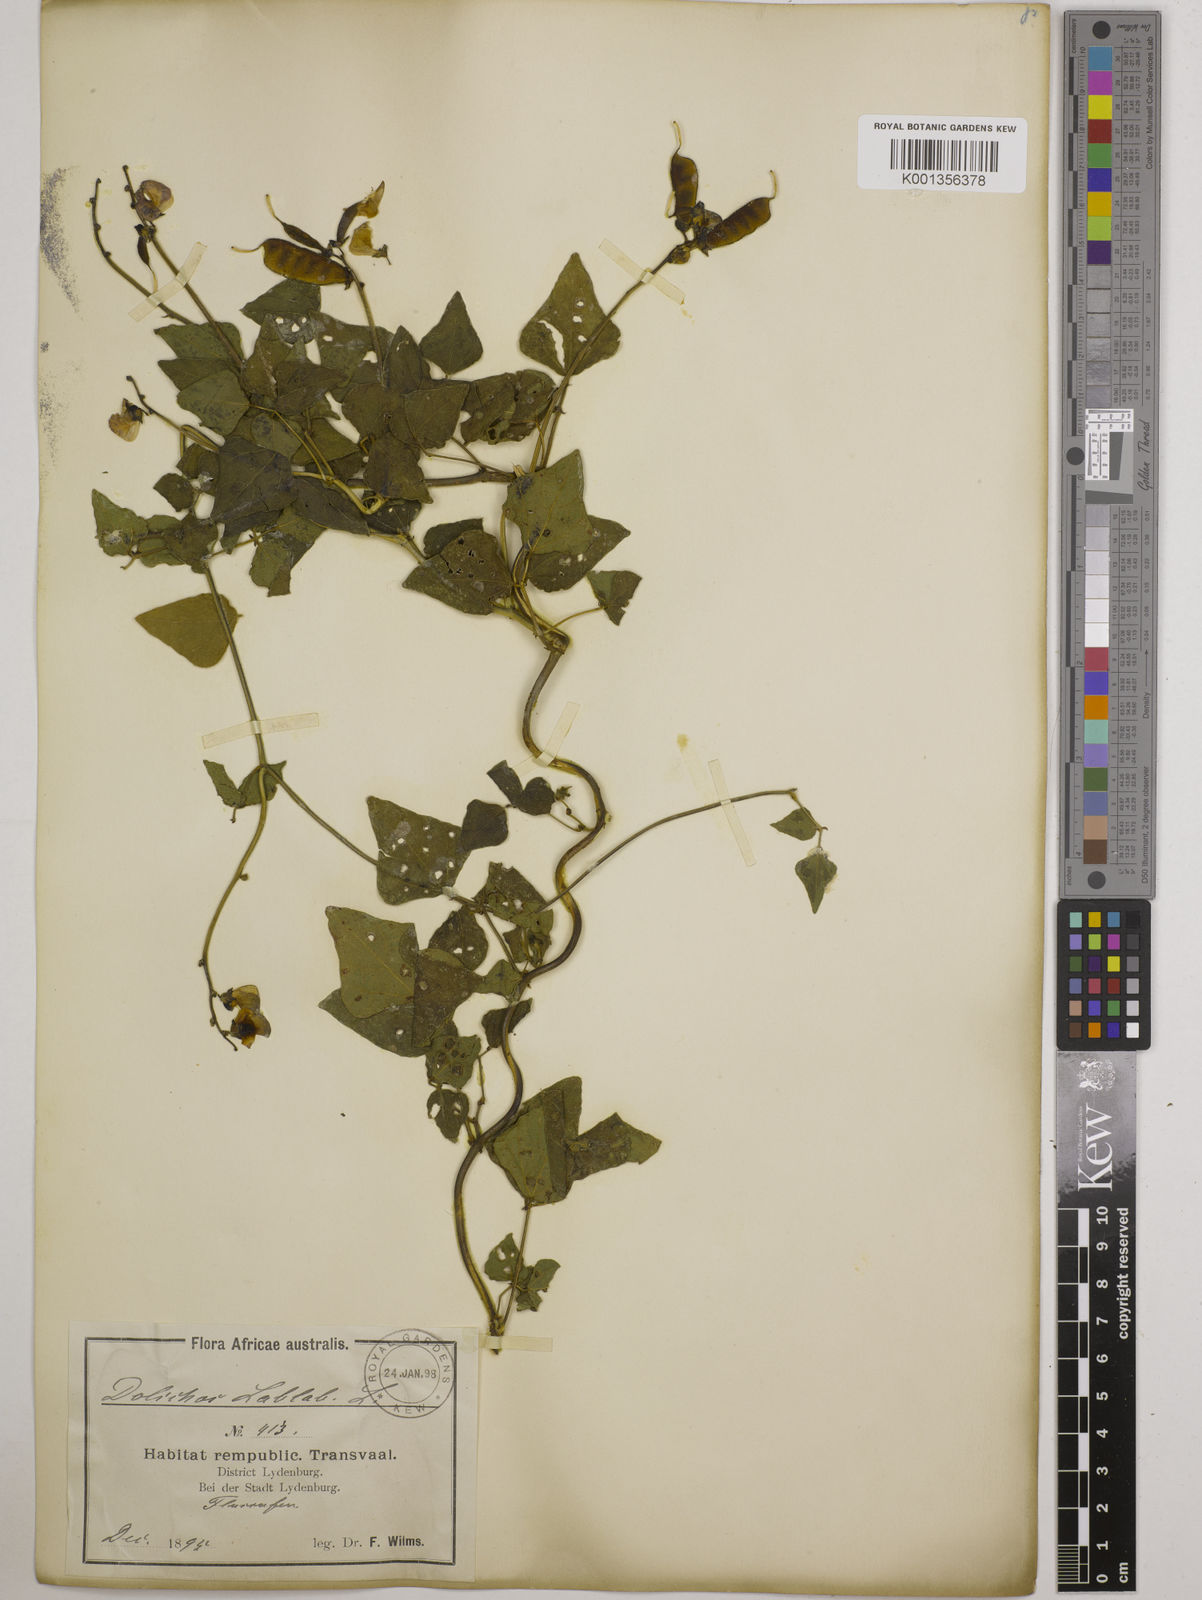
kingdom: Plantae
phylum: Tracheophyta
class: Magnoliopsida
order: Fabales
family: Fabaceae
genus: Lablab
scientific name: Lablab purpureus
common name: Lablab-bean
